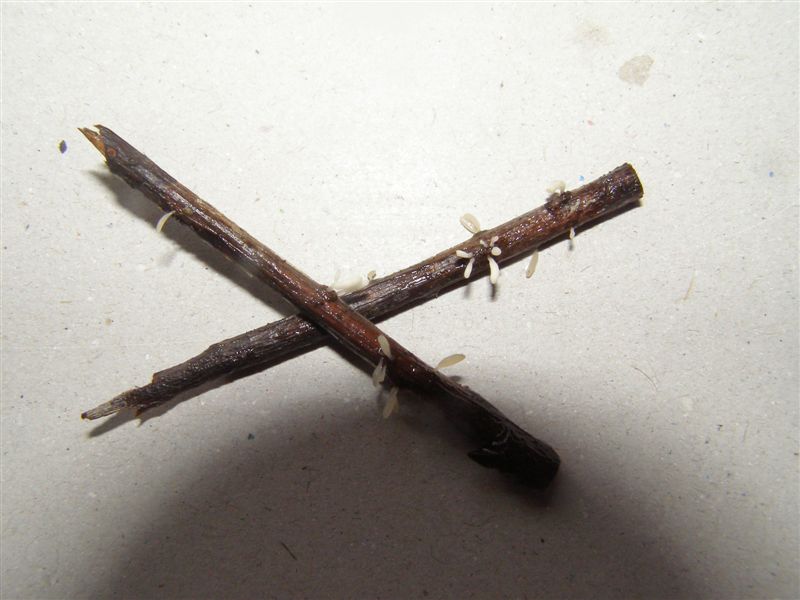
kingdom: Fungi
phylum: Basidiomycota
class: Agaricomycetes
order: Agaricales
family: Typhulaceae
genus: Typhula
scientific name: Typhula spathulata
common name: aske-trådkølle
